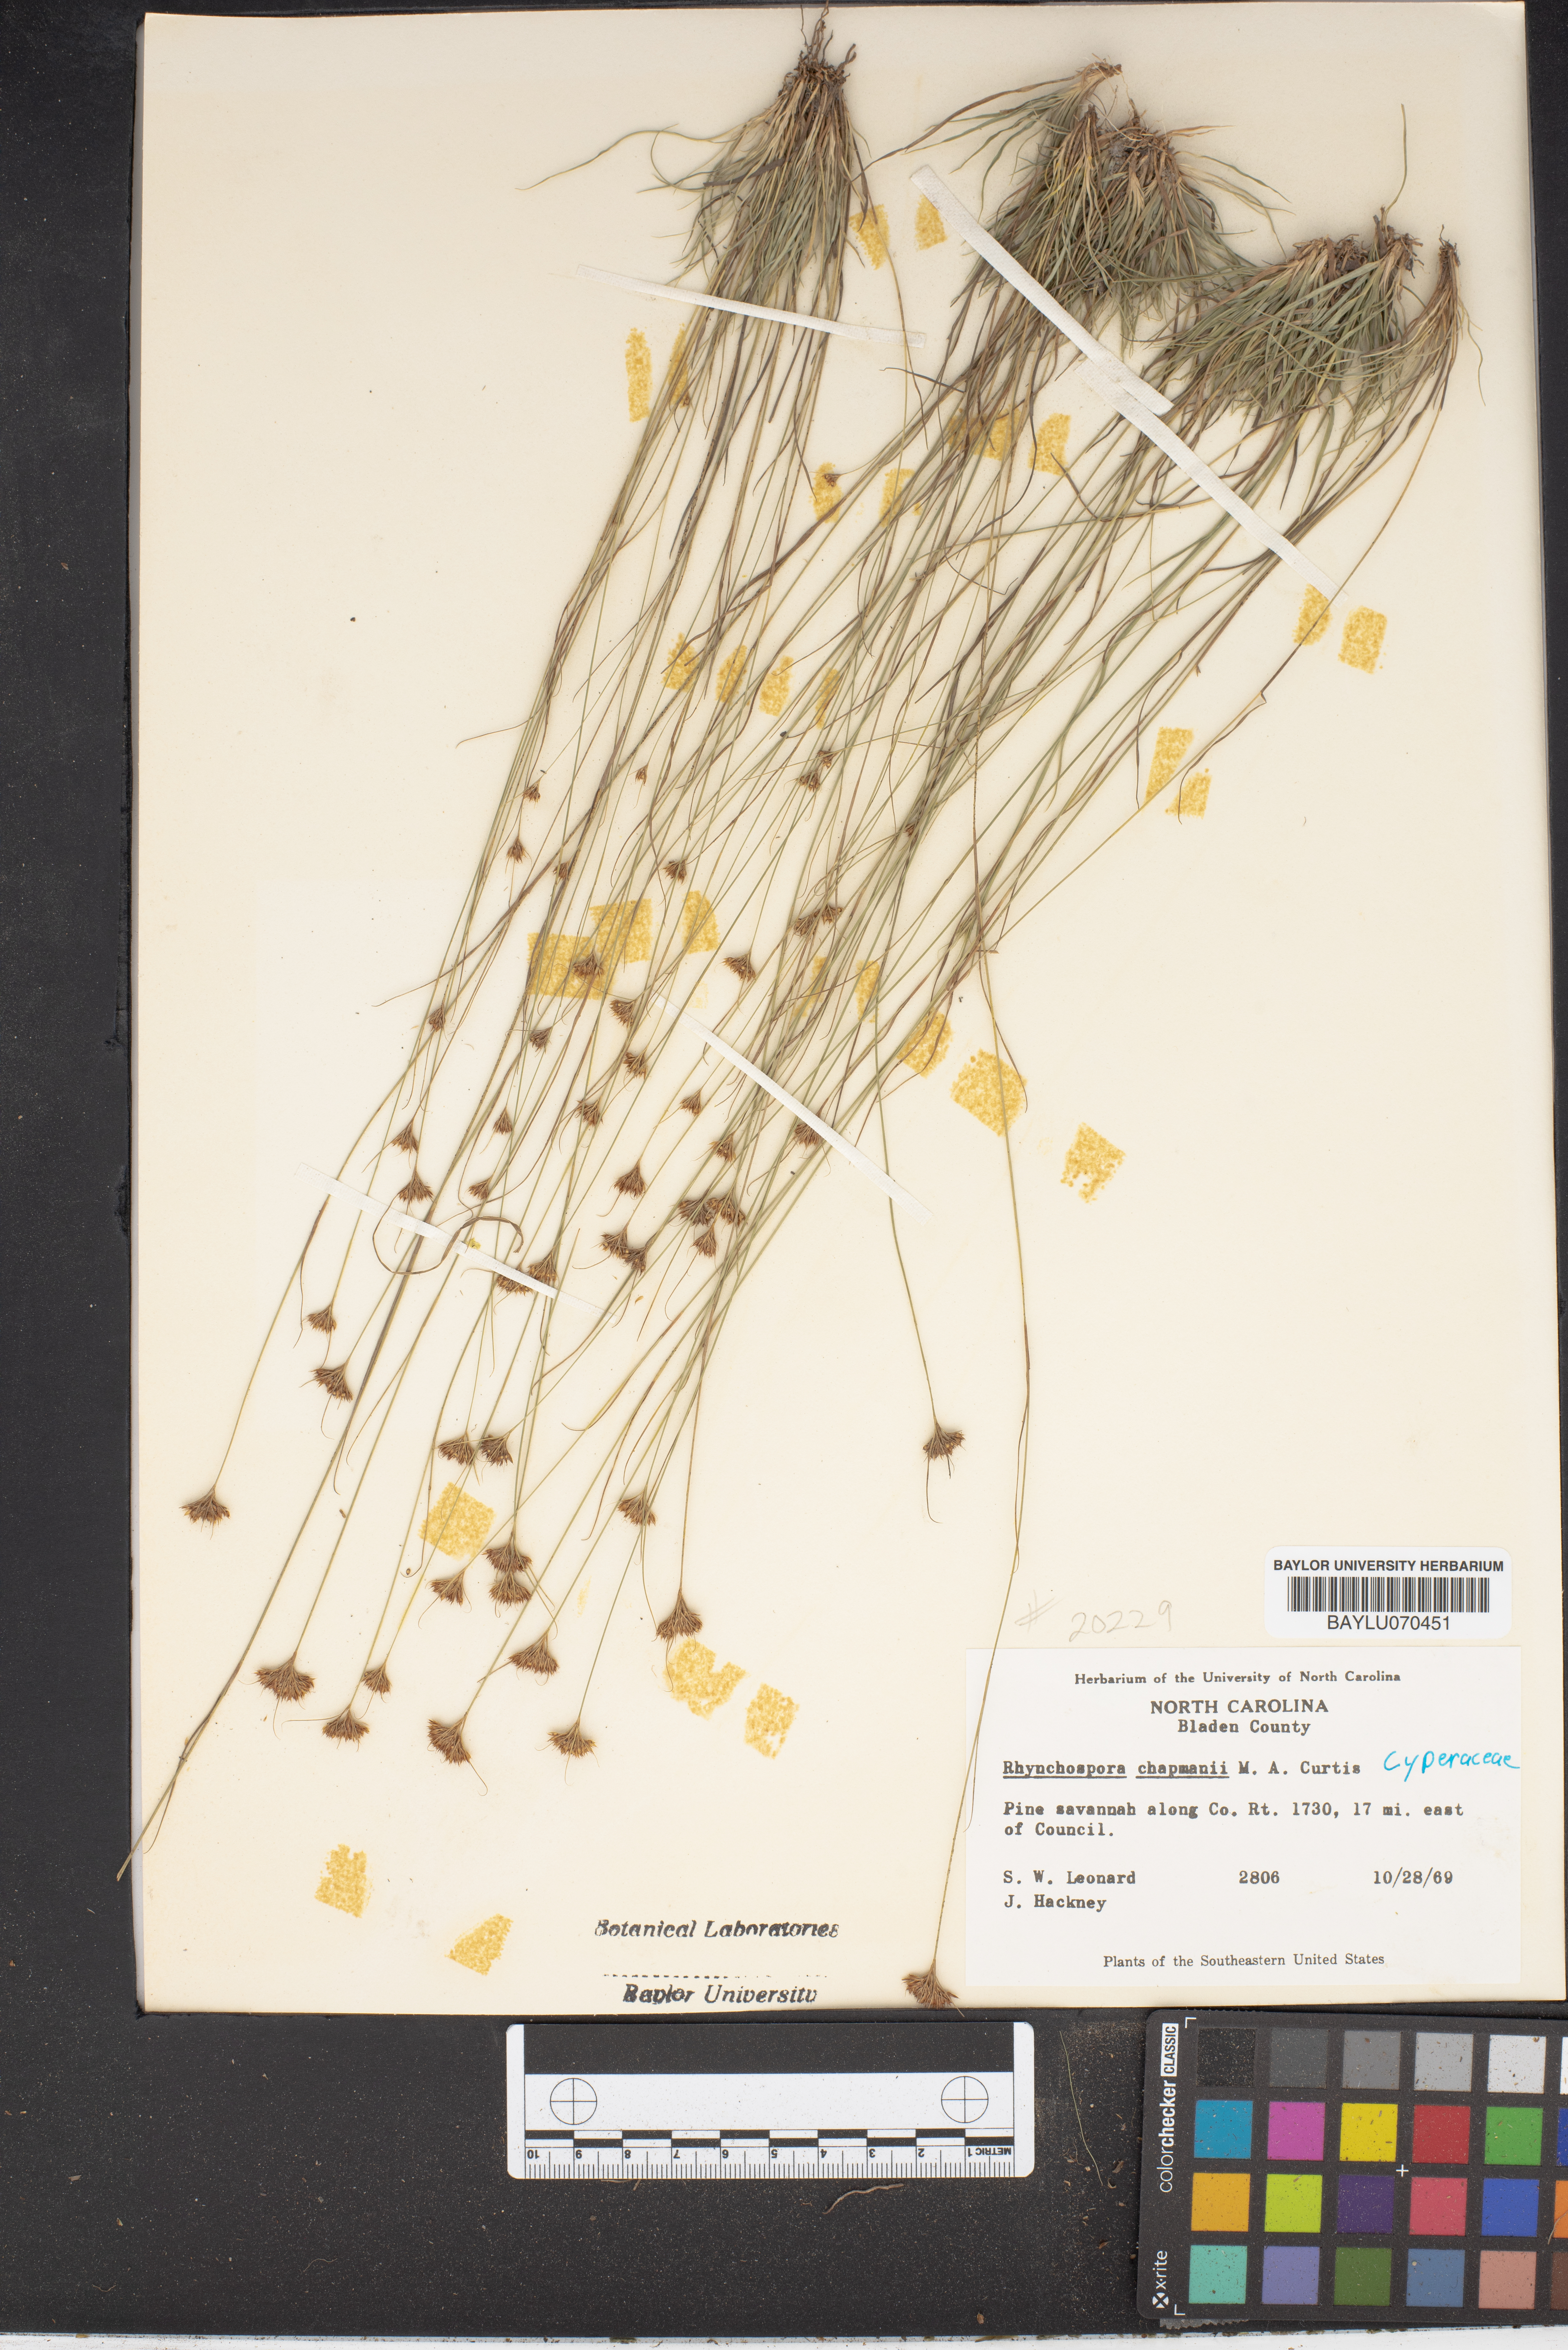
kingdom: Plantae
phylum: Tracheophyta
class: Liliopsida
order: Poales
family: Cyperaceae
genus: Rhynchospora
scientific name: Rhynchospora chapmanii
